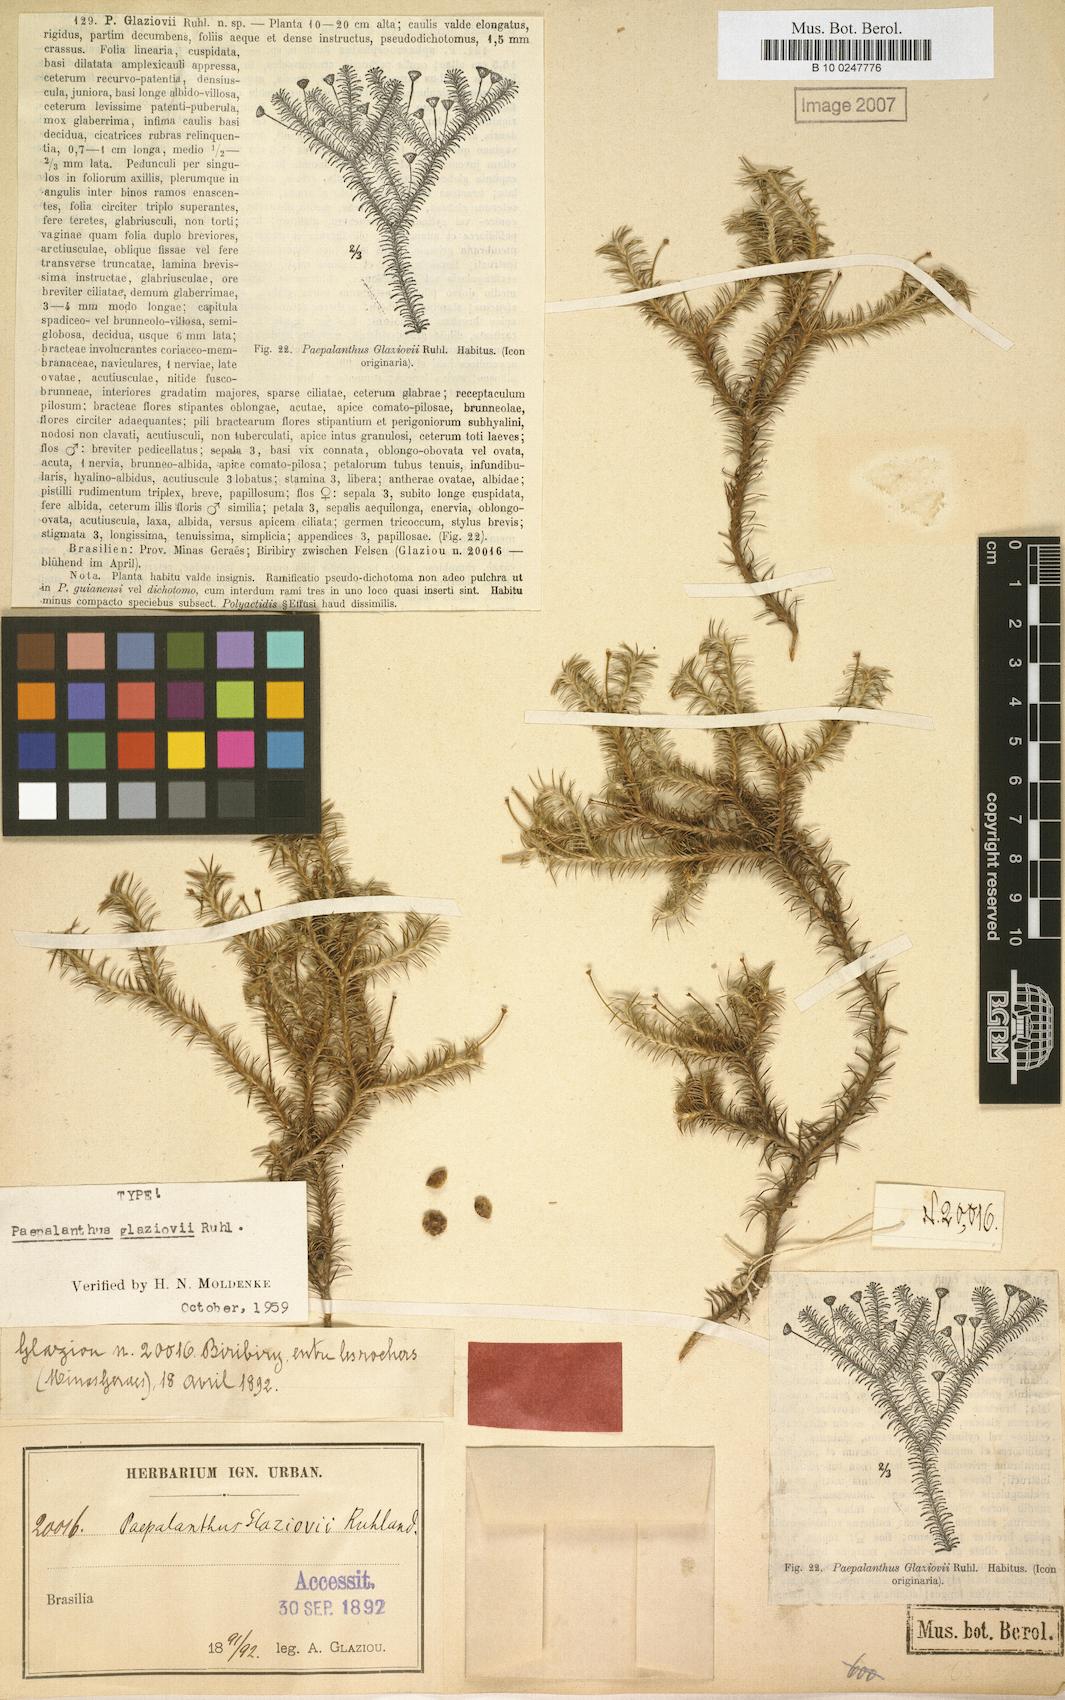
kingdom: Plantae
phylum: Tracheophyta
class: Liliopsida
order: Poales
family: Eriocaulaceae
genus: Paepalanthus
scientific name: Paepalanthus falcifolius
